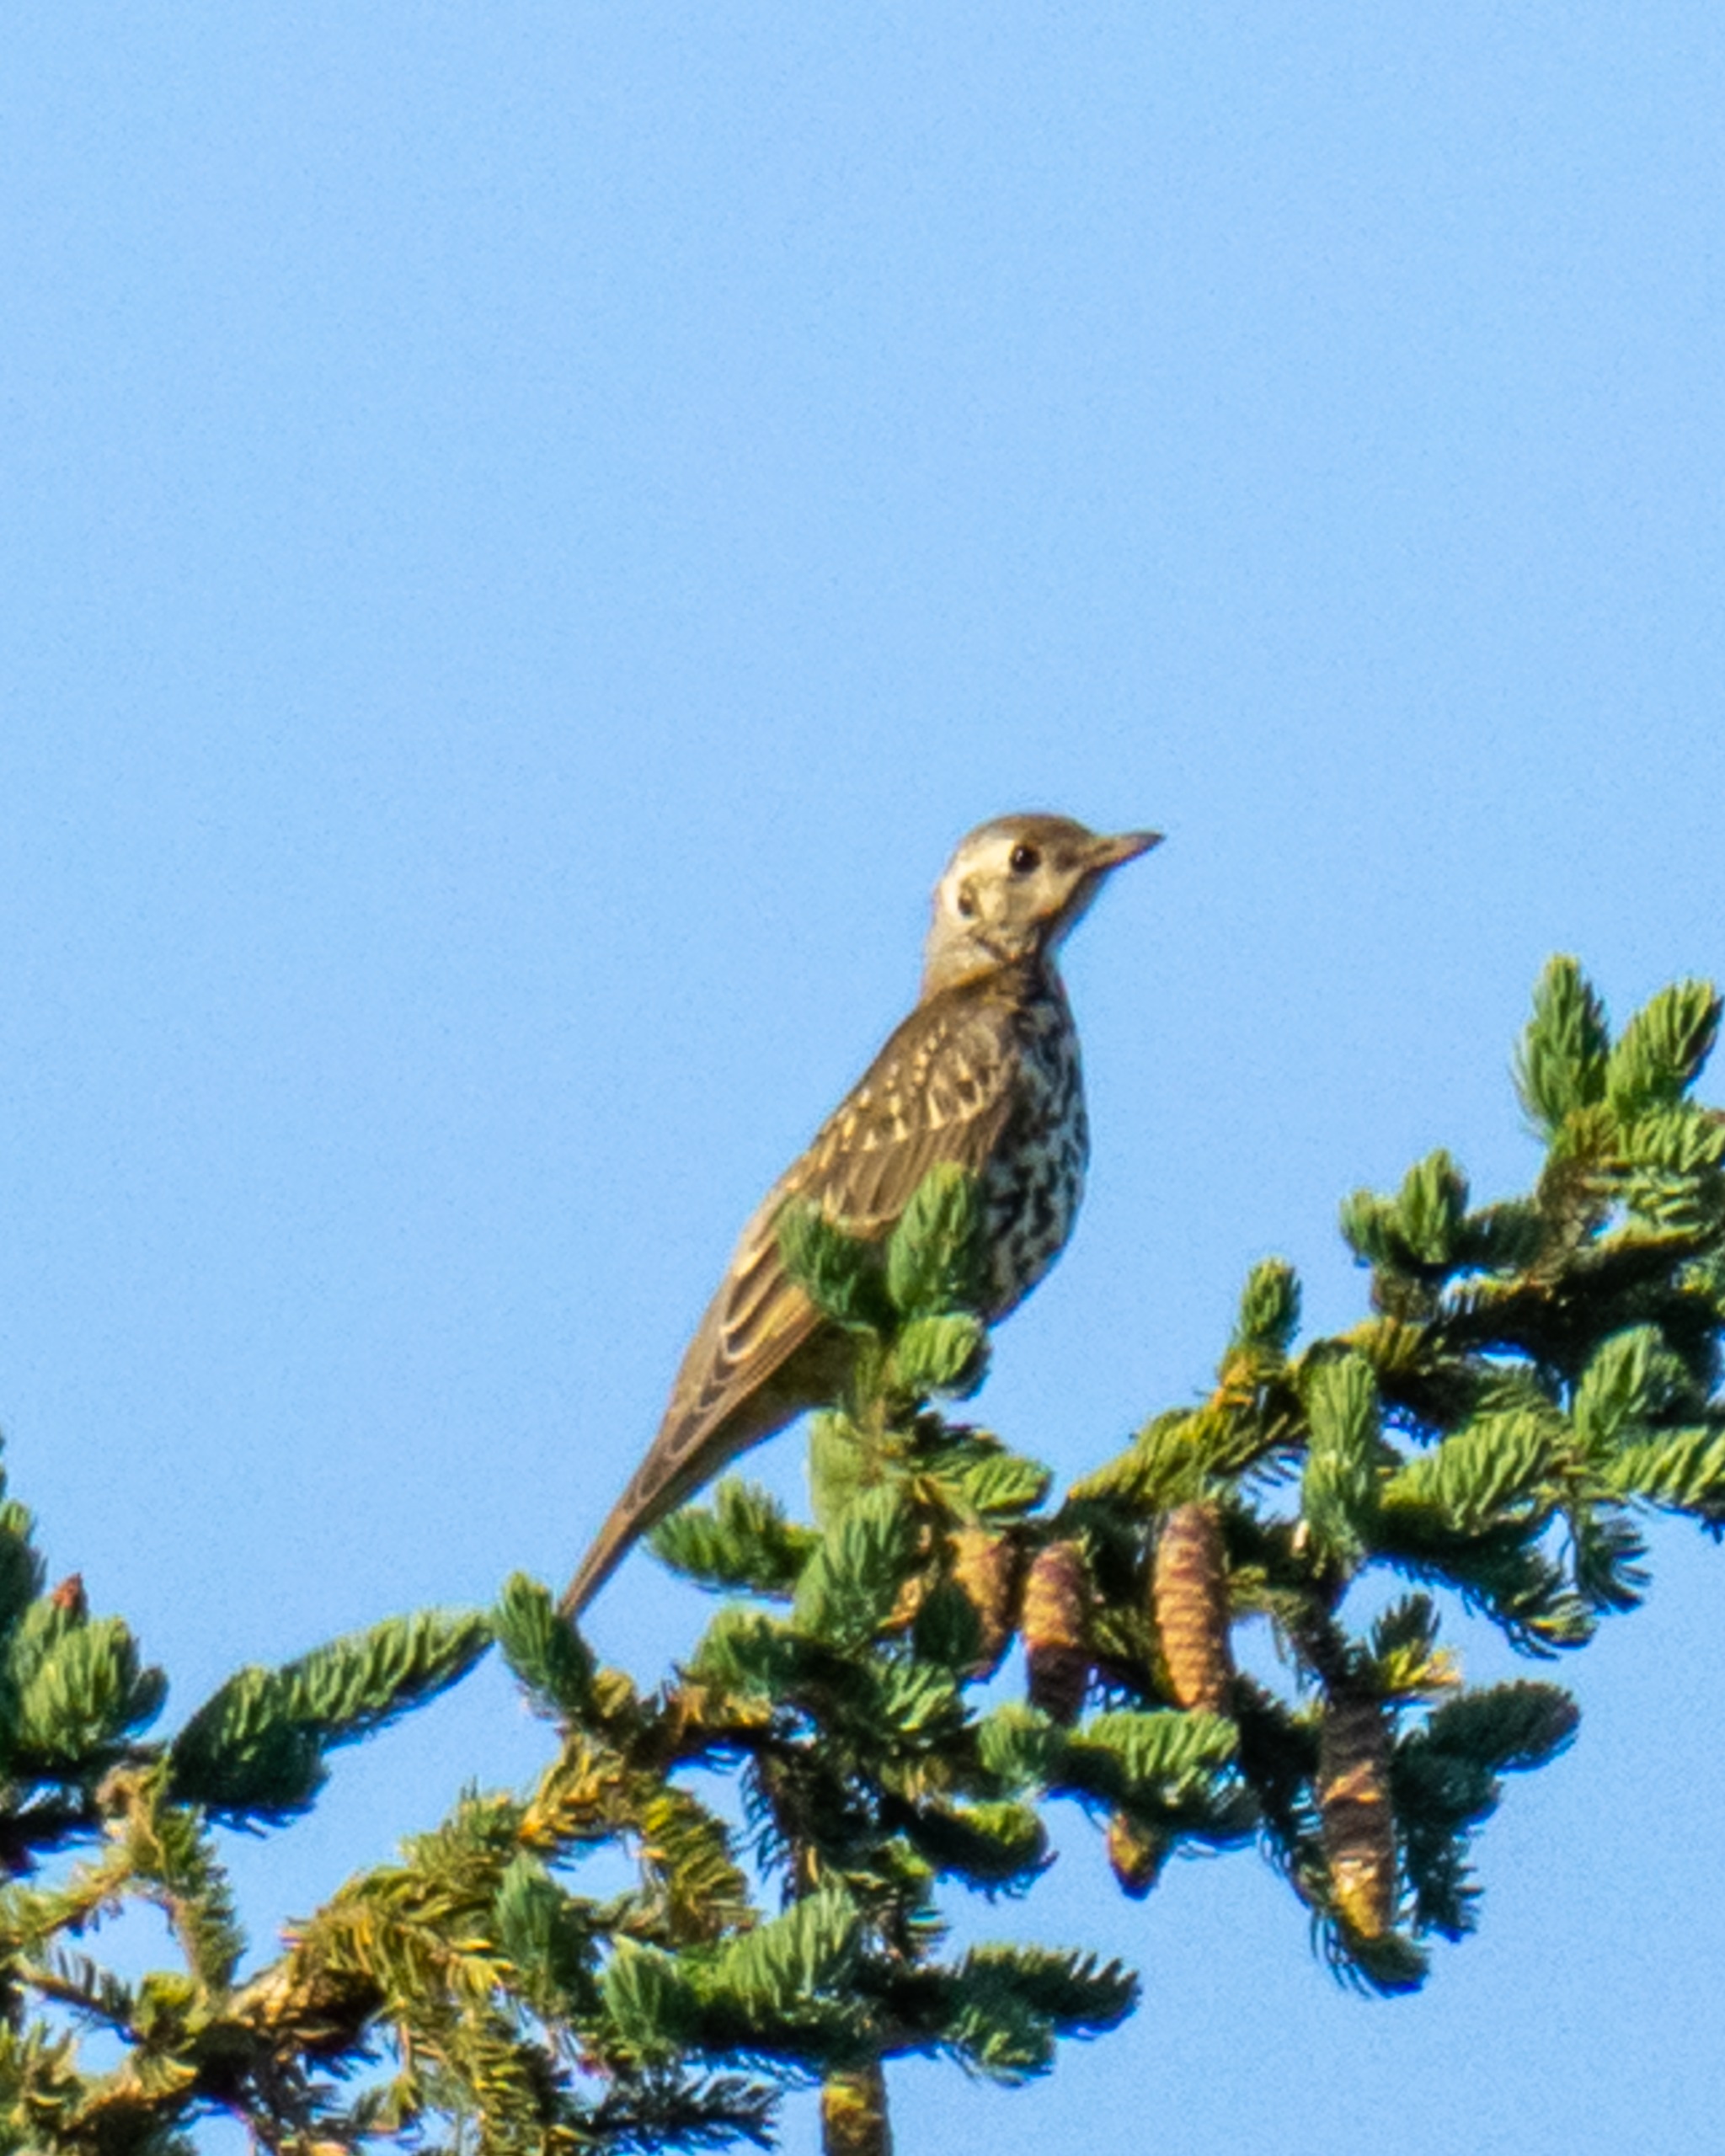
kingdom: Animalia
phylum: Chordata
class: Aves
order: Passeriformes
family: Turdidae
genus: Turdus
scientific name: Turdus viscivorus
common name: Misteldrossel
